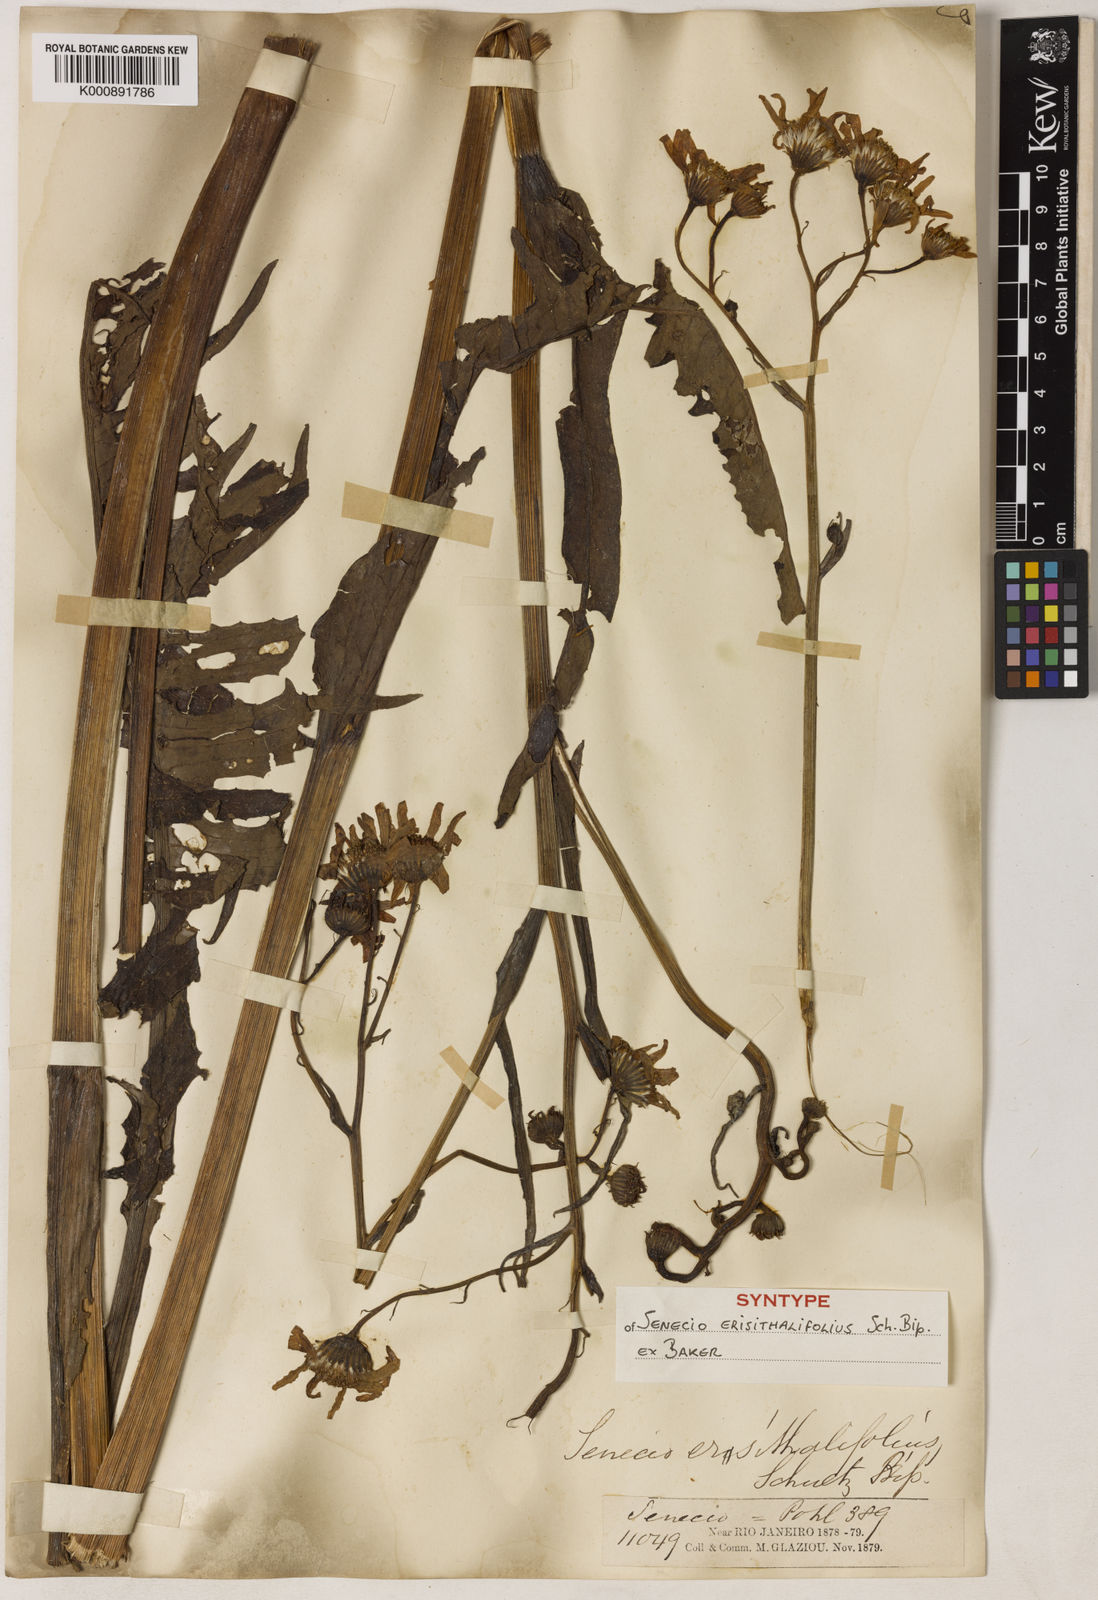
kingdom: Plantae
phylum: Tracheophyta
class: Magnoliopsida
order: Asterales
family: Asteraceae
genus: Senecio
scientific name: Senecio erisithalifolius
